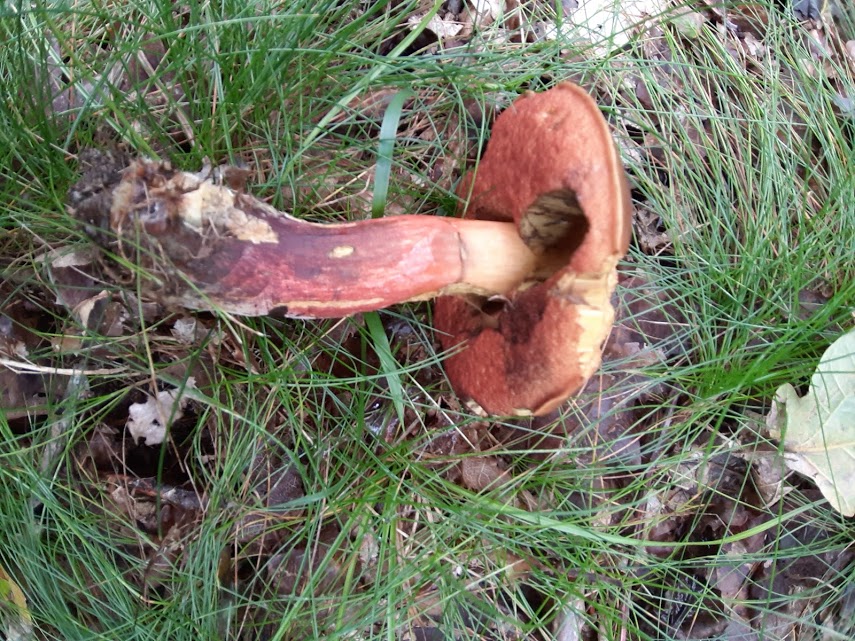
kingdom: Fungi
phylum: Basidiomycota
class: Agaricomycetes
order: Boletales
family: Boletaceae
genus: Neoboletus
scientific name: Neoboletus erythropus
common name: punktstokket indigorørhat
